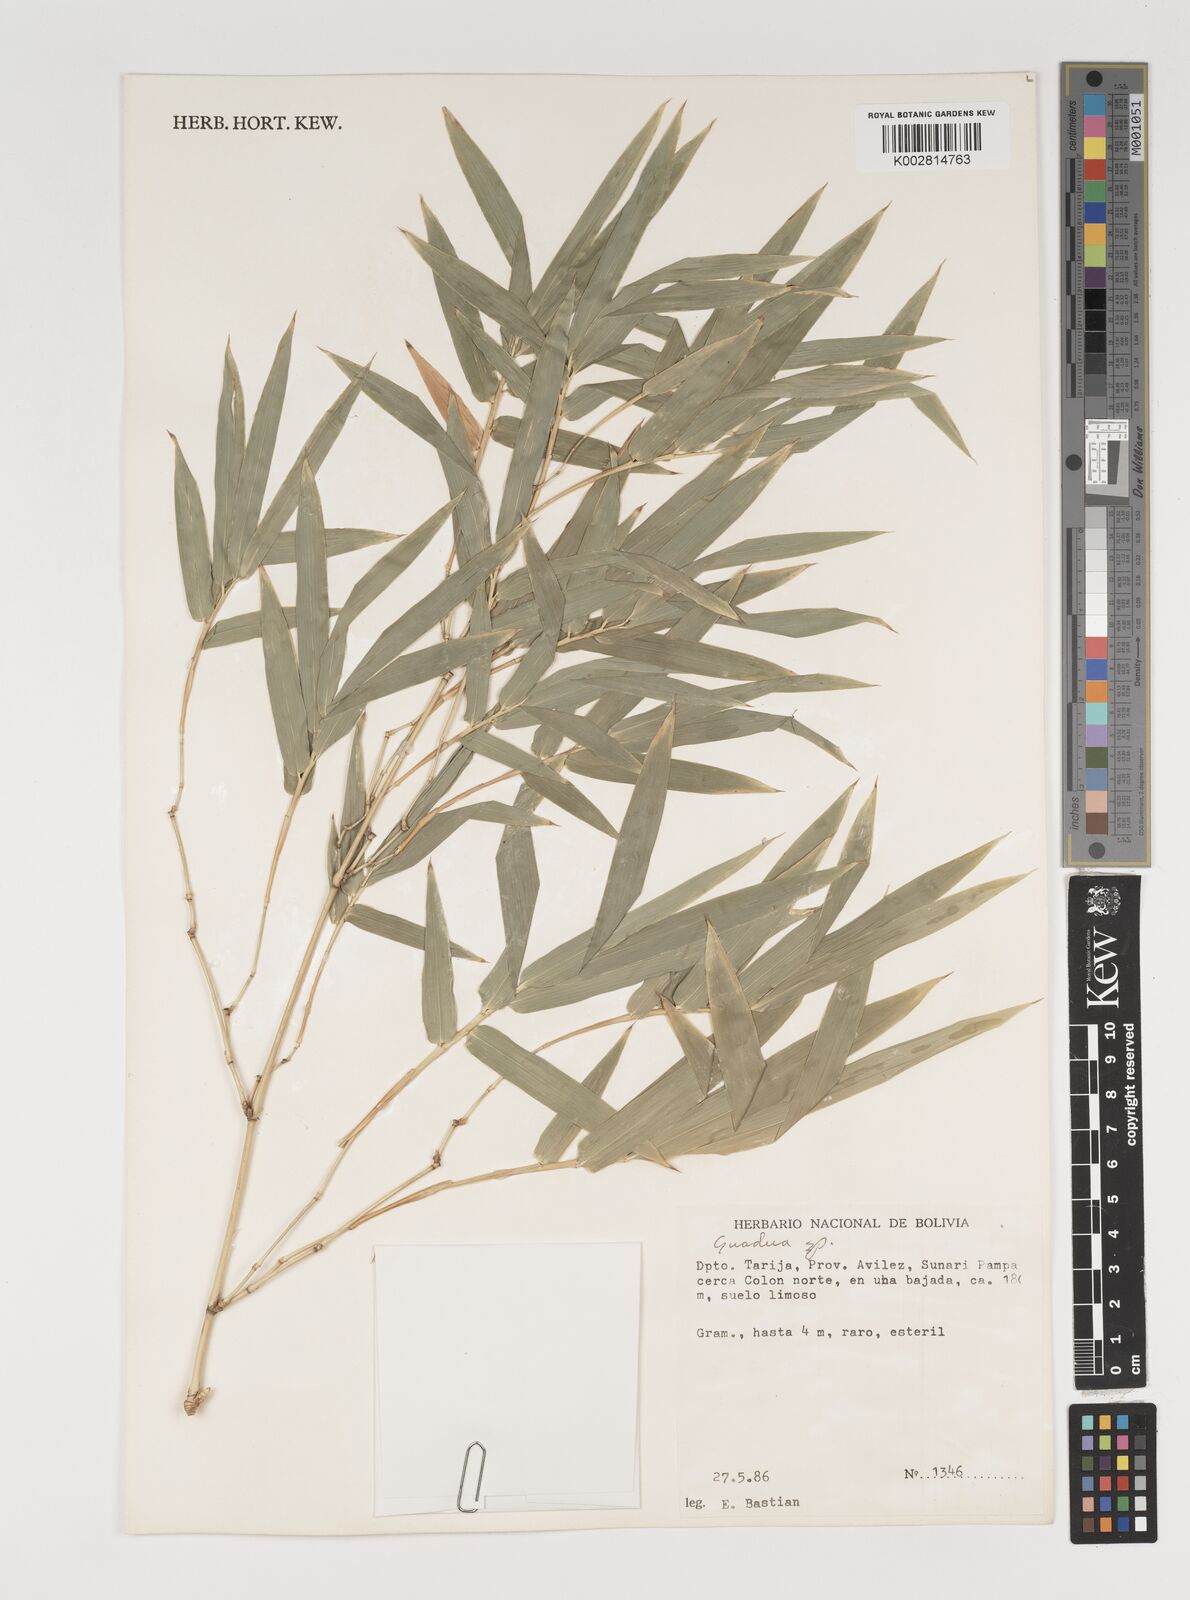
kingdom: Plantae
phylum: Tracheophyta
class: Liliopsida
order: Poales
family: Poaceae
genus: Guadua
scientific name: Guadua
